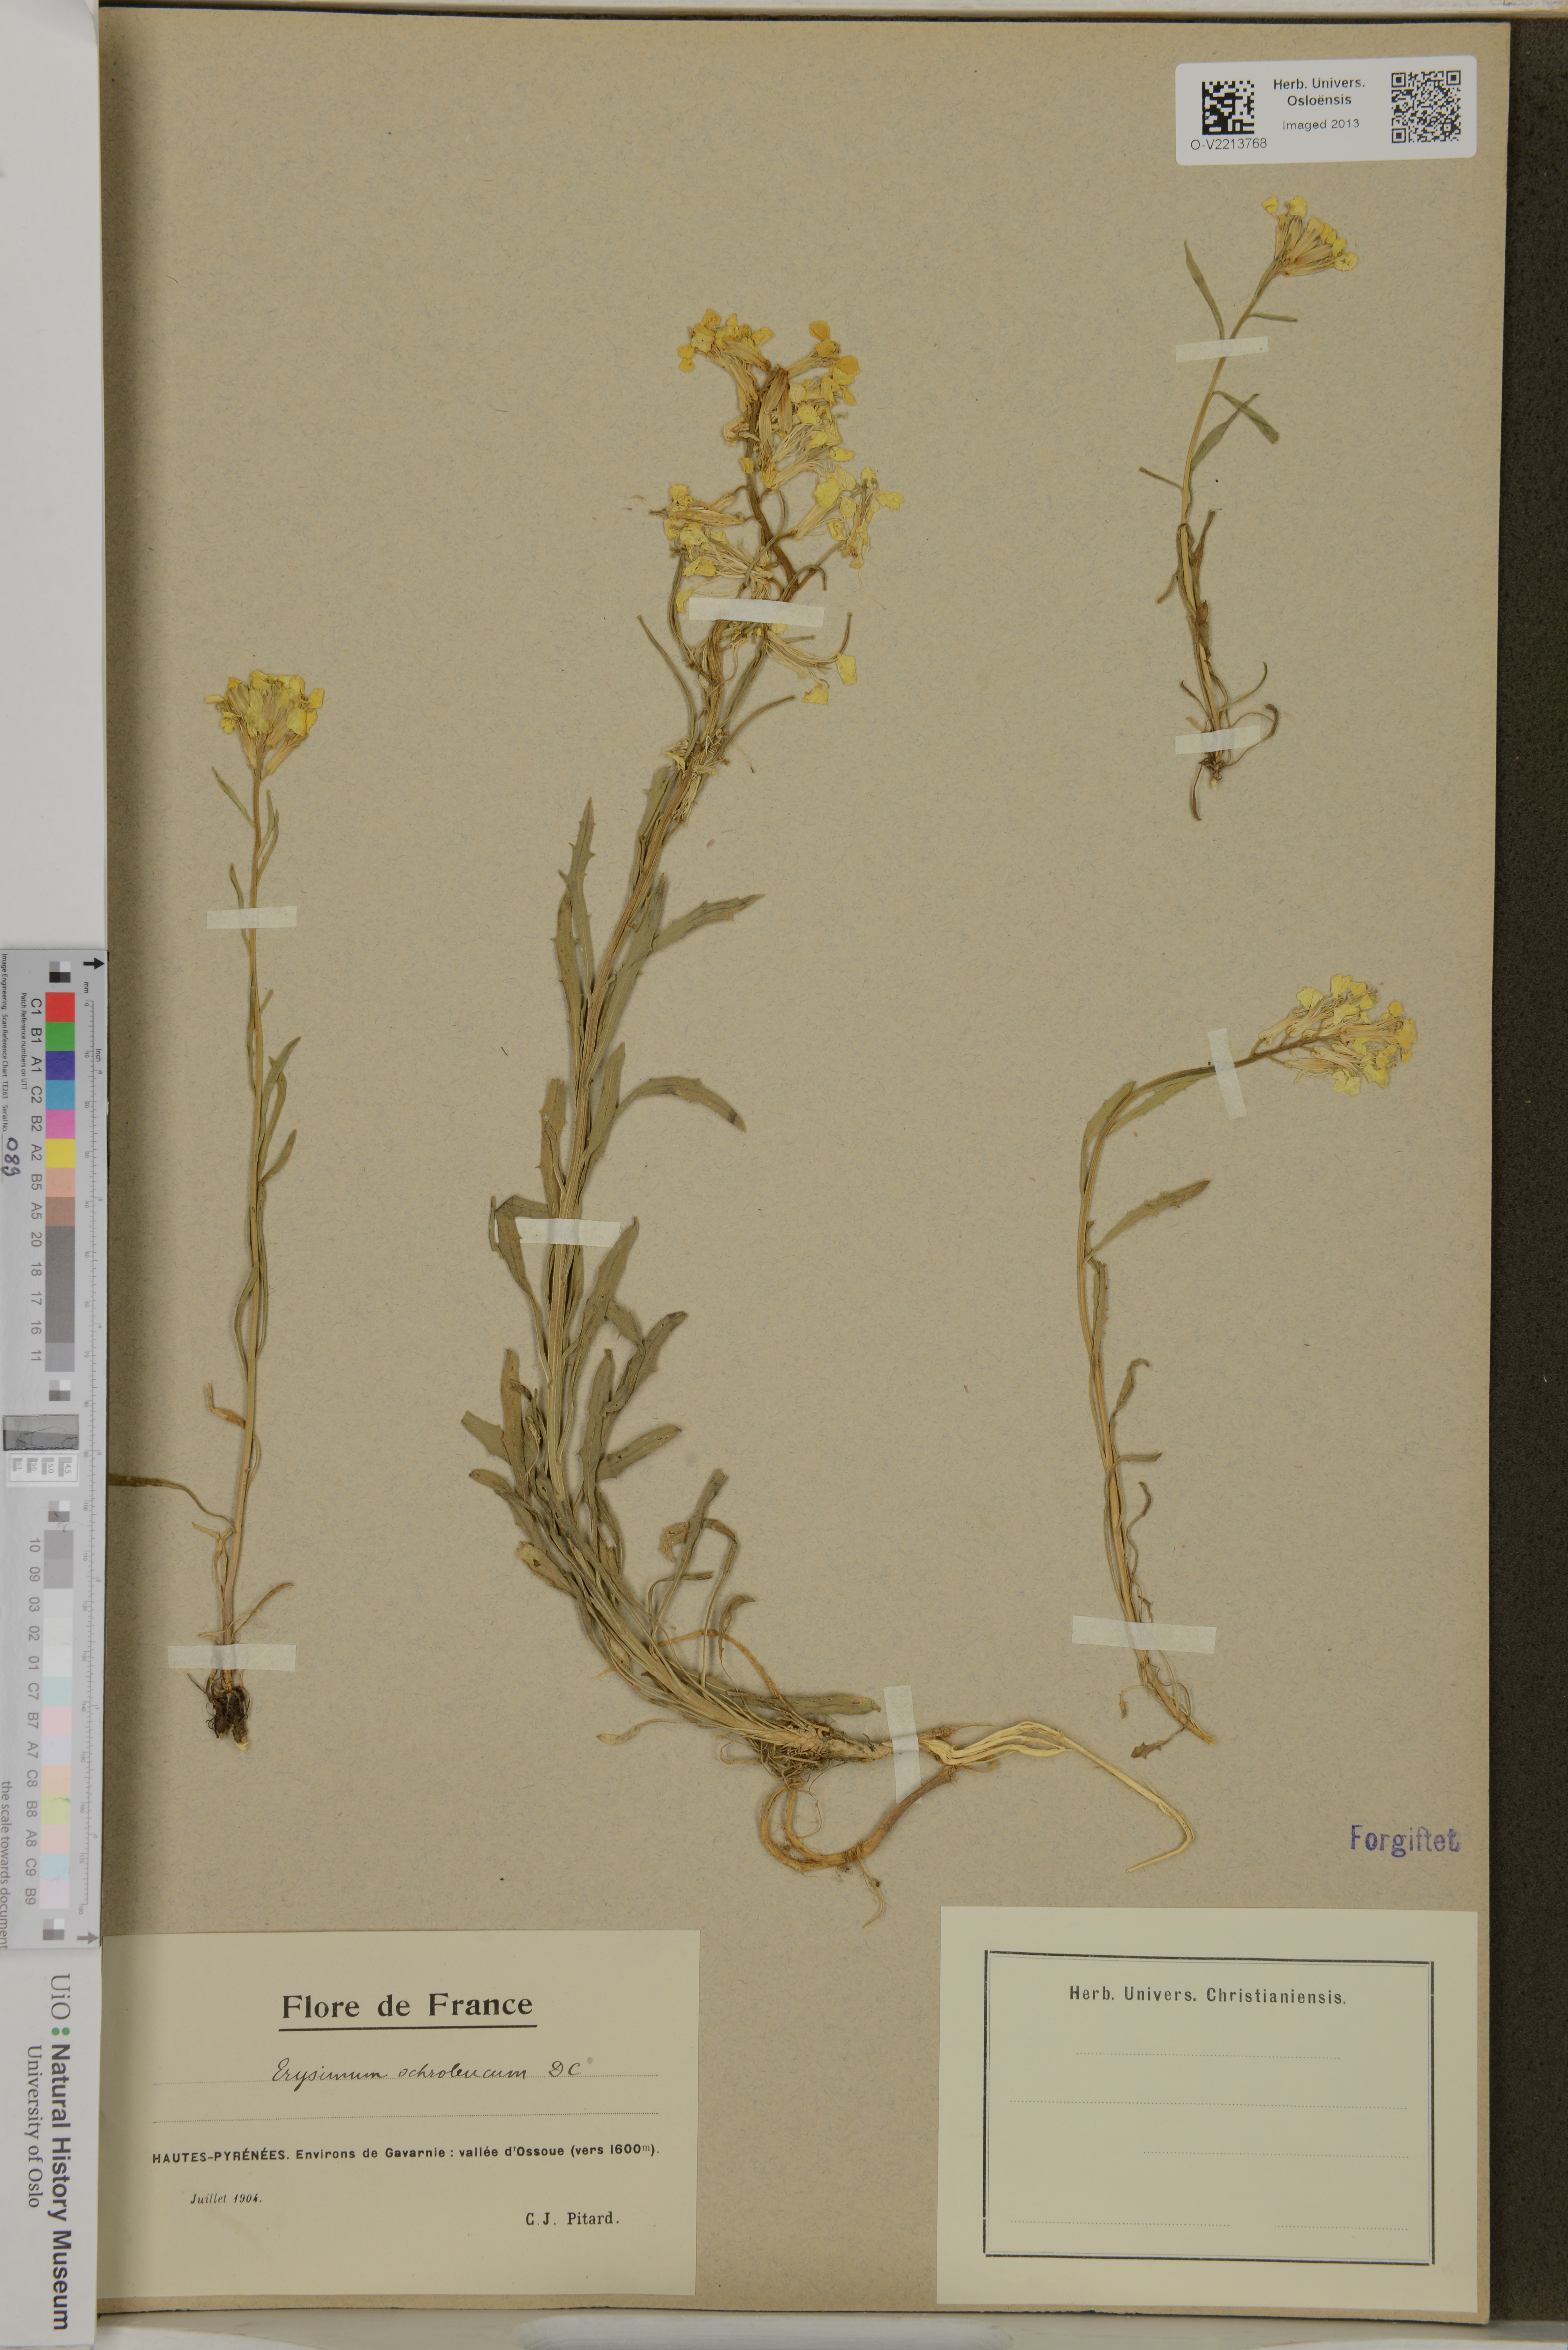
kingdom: Plantae
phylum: Tracheophyta
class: Magnoliopsida
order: Brassicales
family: Brassicaceae
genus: Erysimum
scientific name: Erysimum
